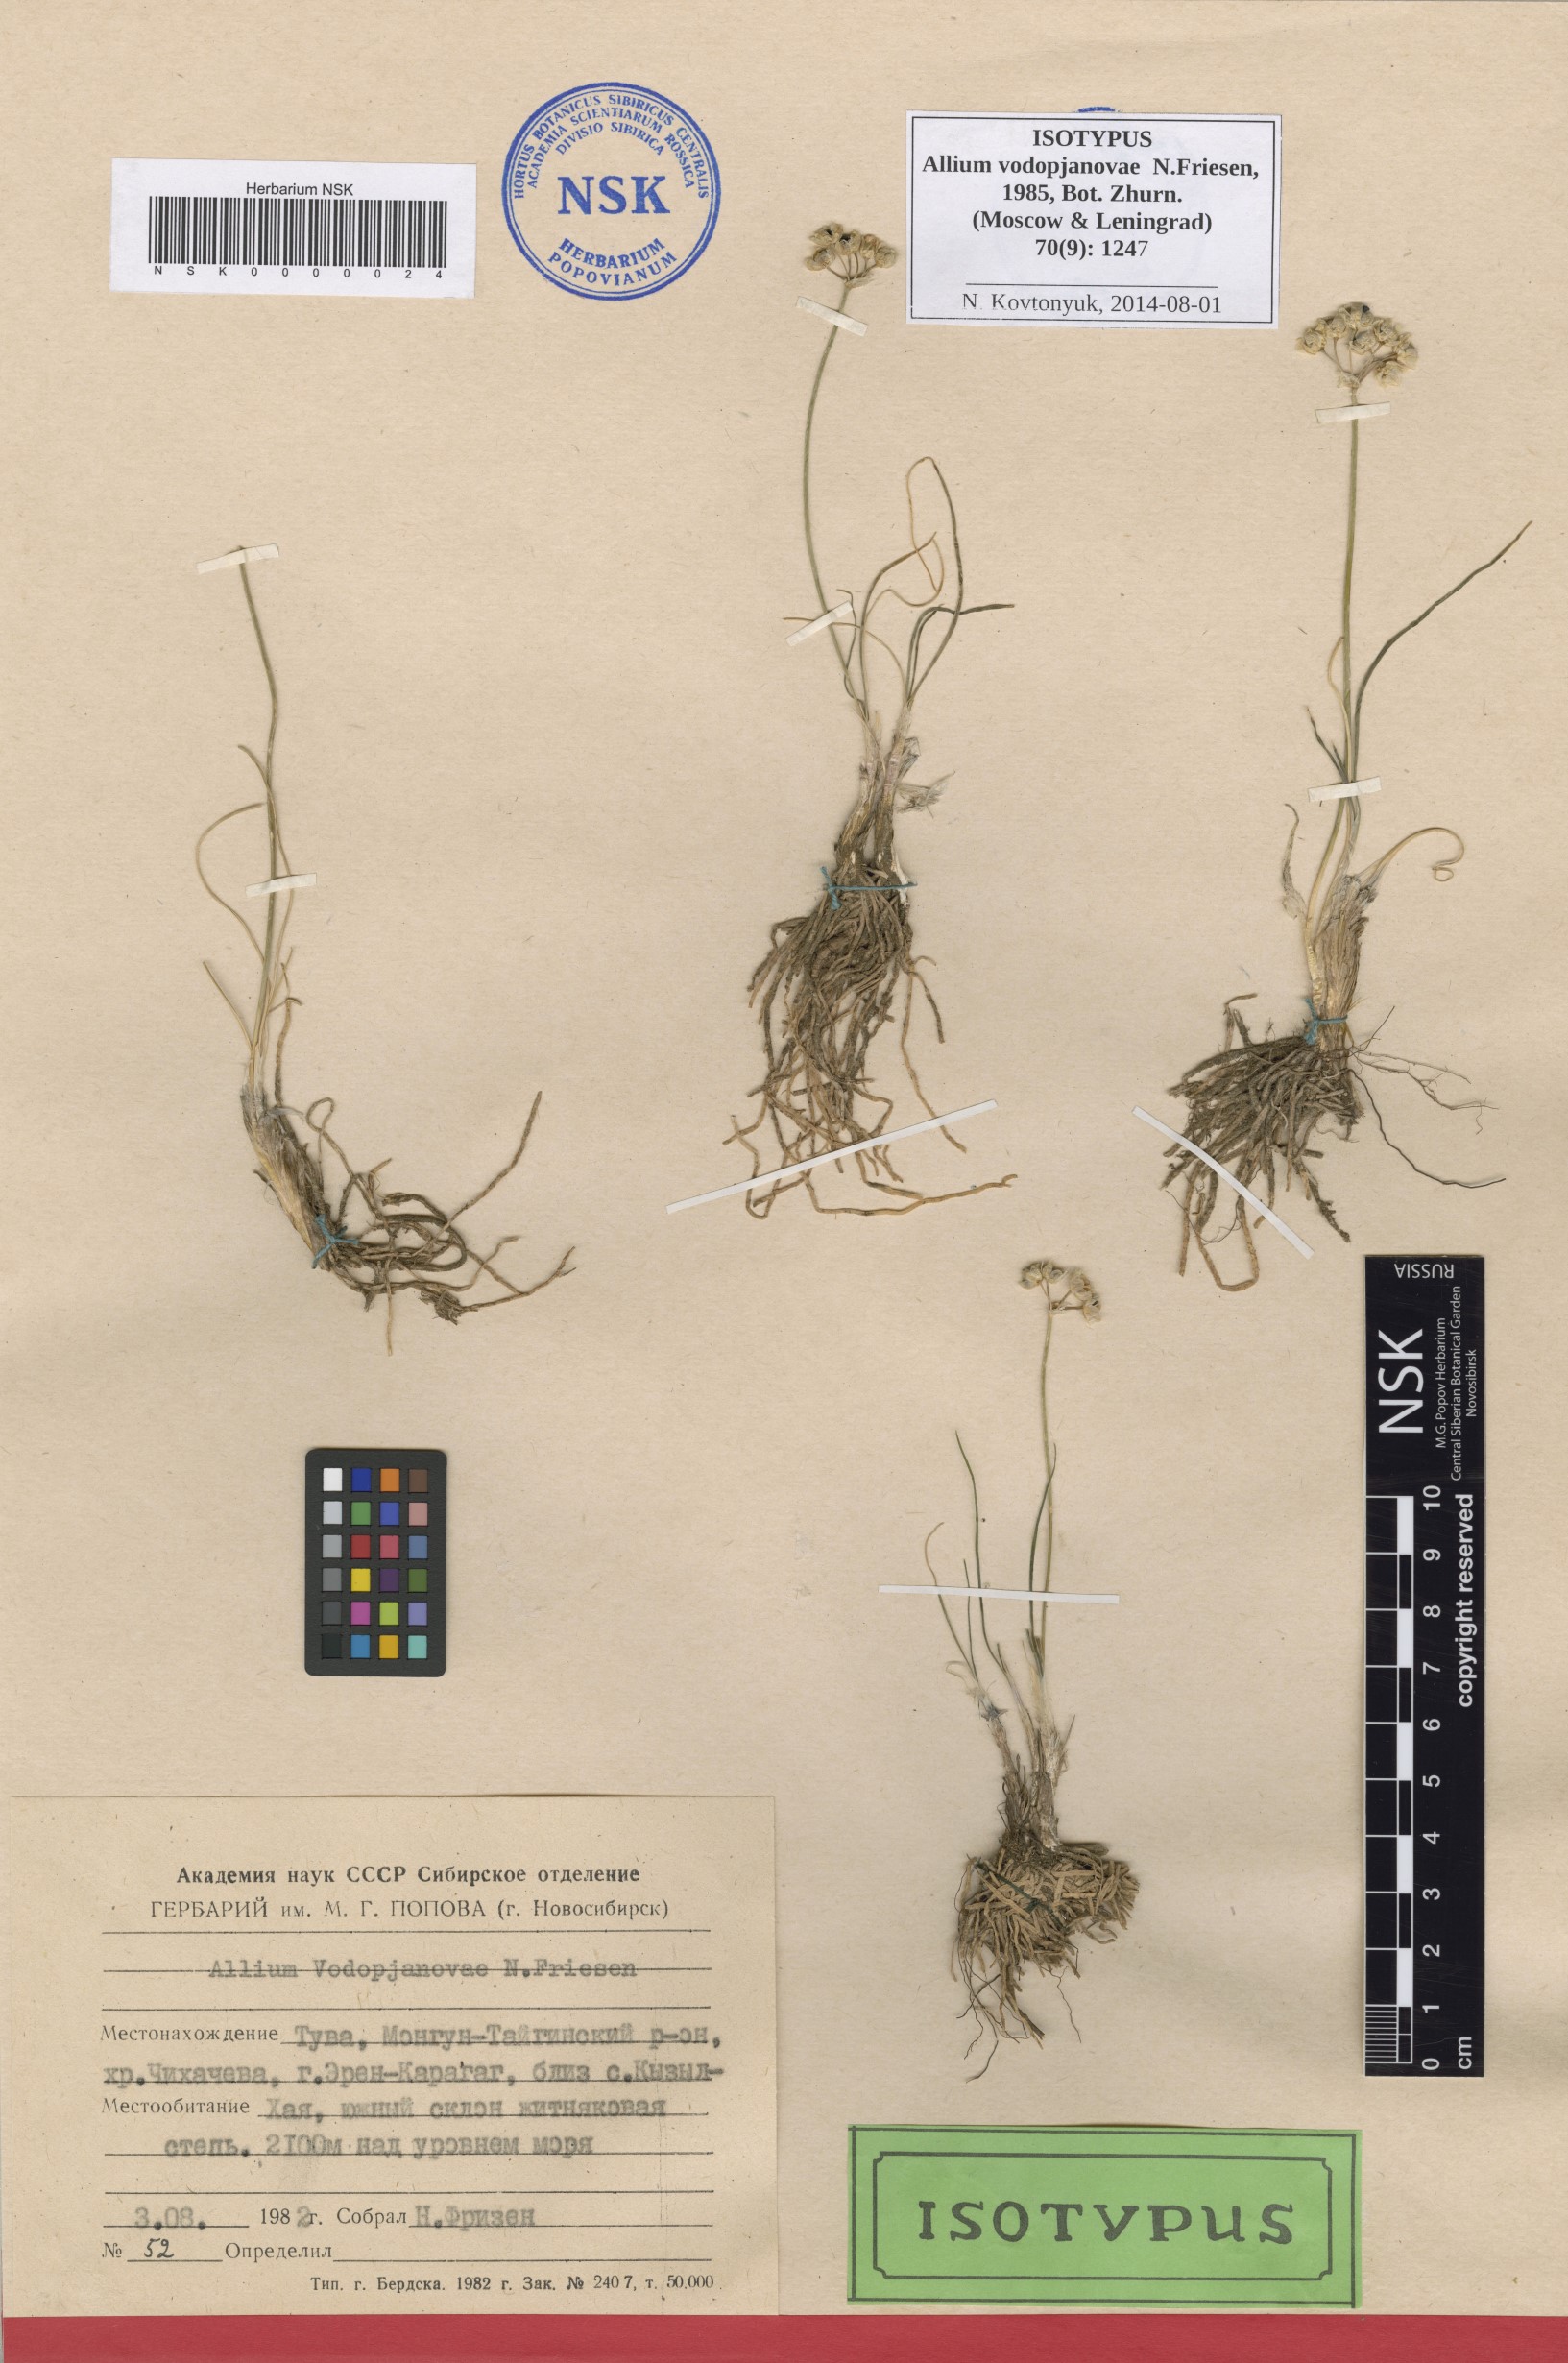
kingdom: Plantae
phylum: Tracheophyta
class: Liliopsida
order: Asparagales
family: Amaryllidaceae
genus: Allium
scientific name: Allium vodopjanovae
